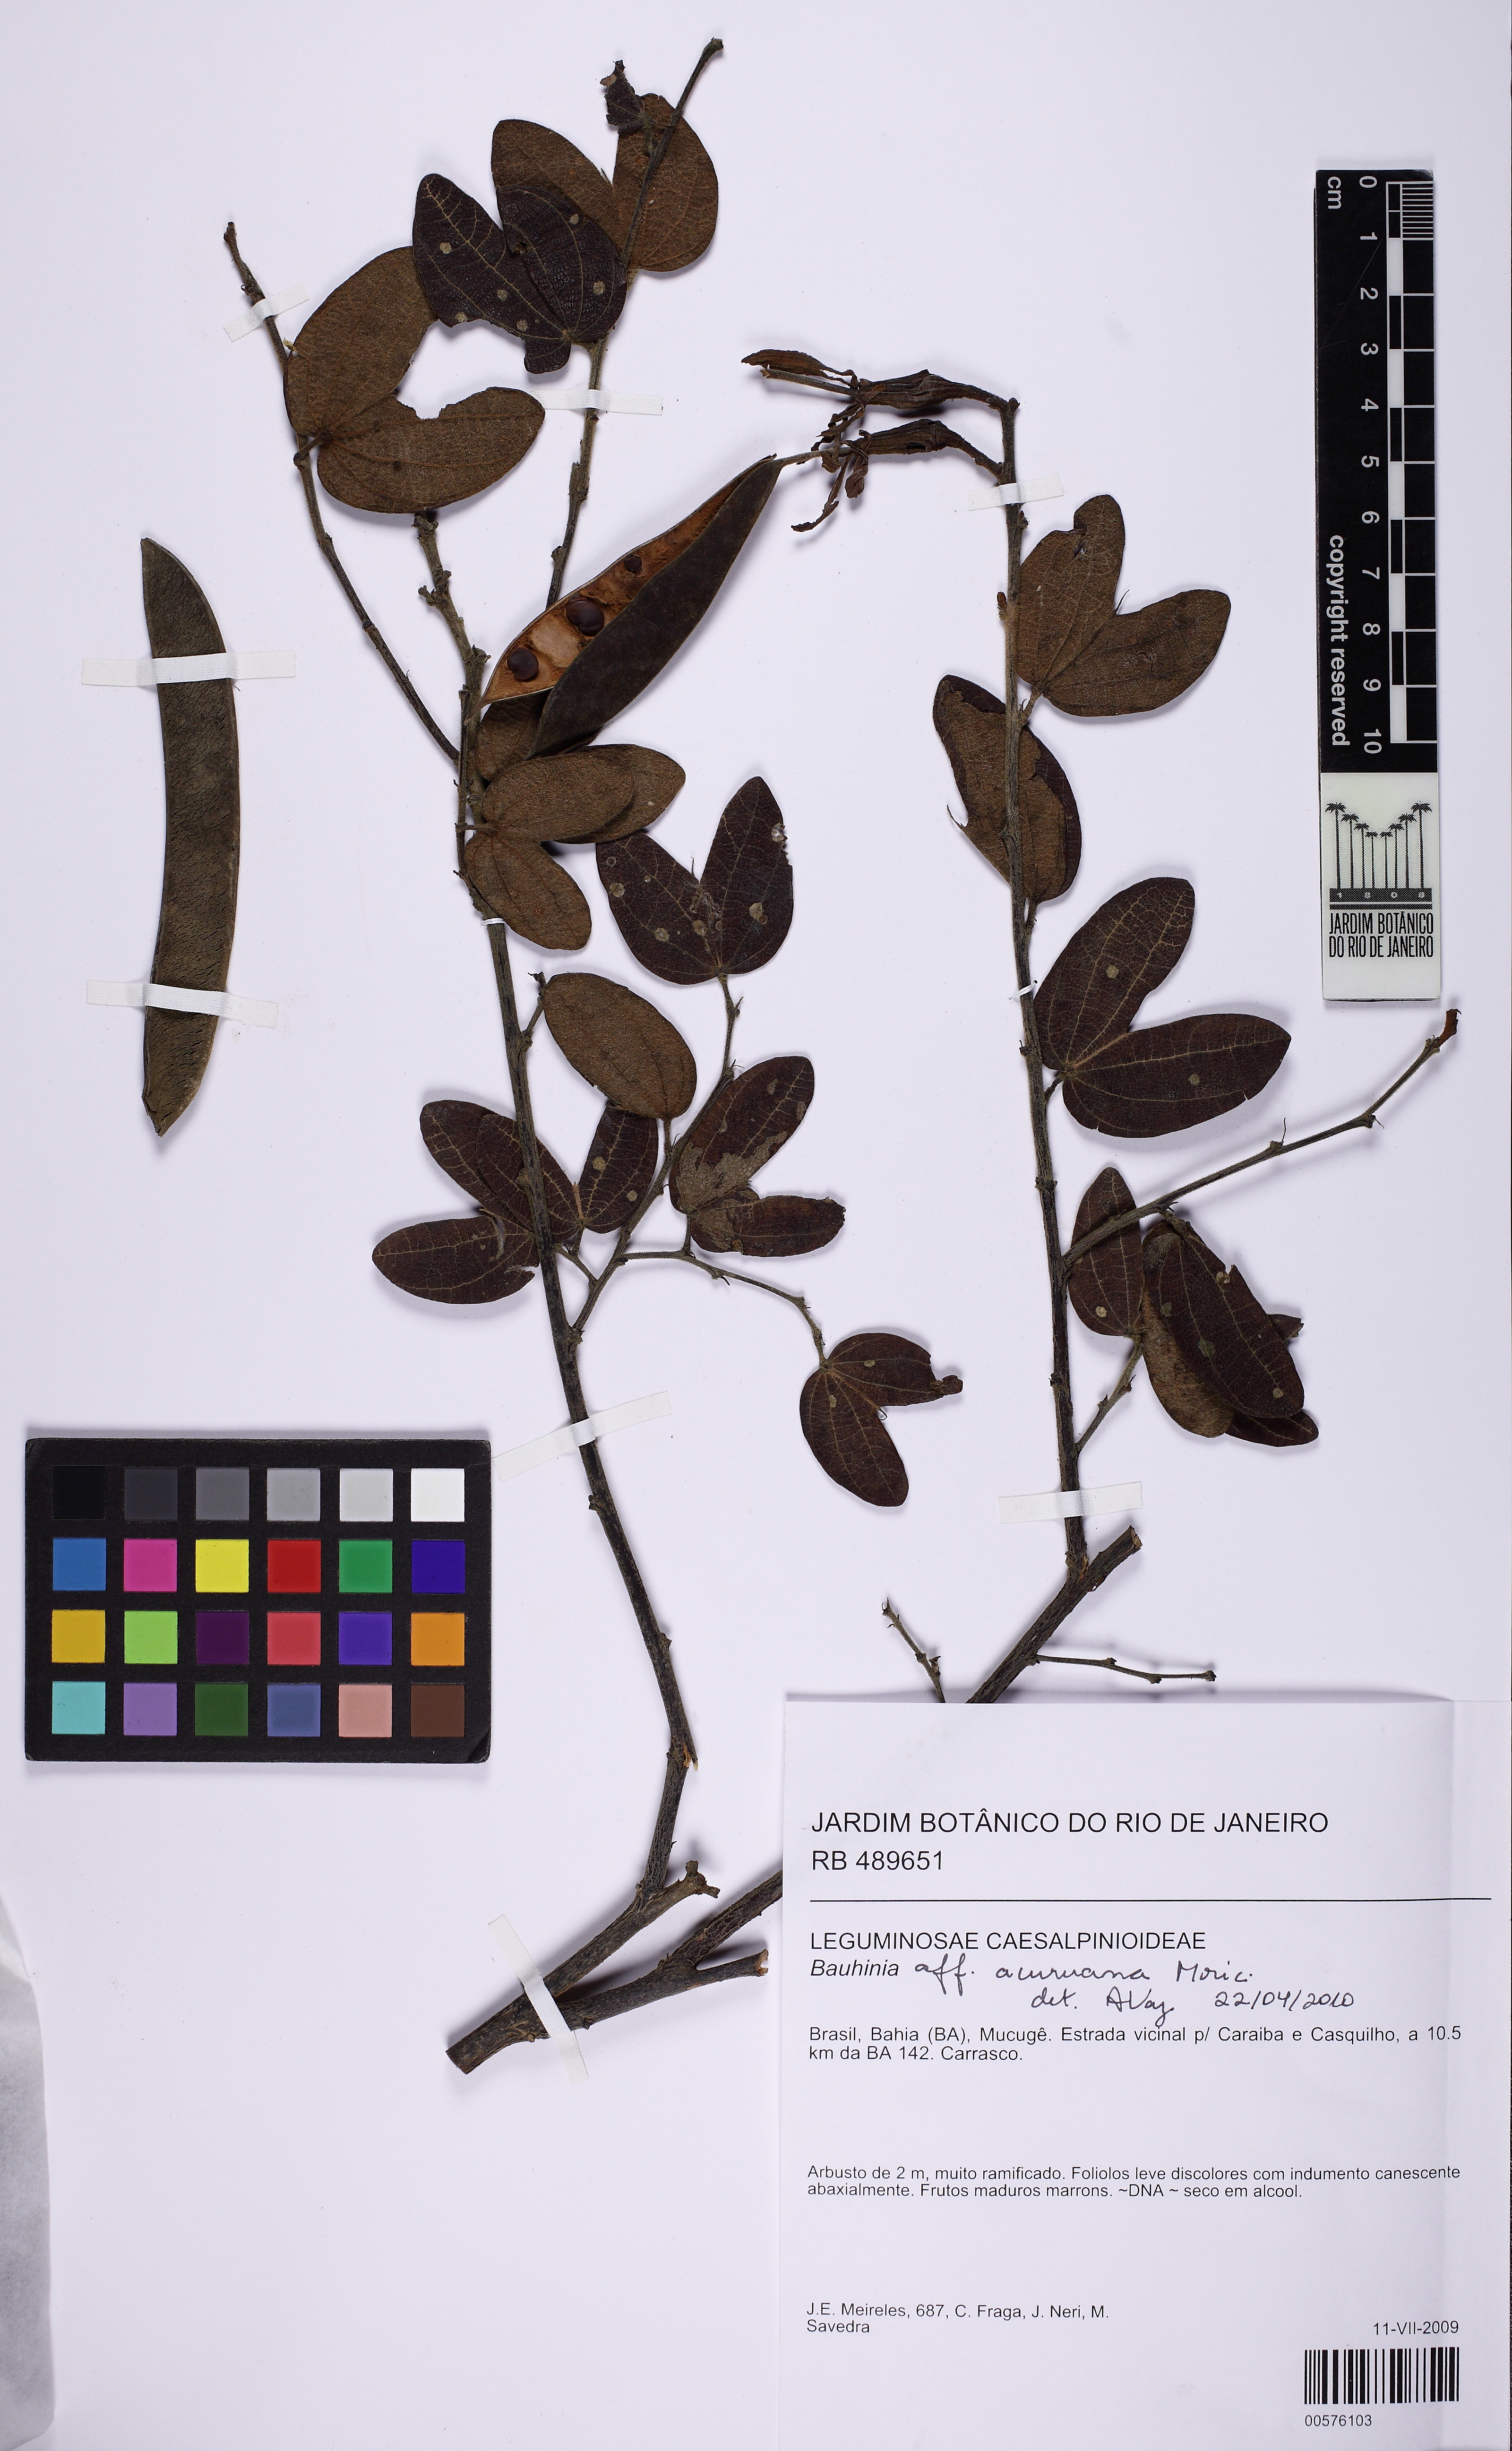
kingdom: Plantae
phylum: Tracheophyta
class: Magnoliopsida
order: Fabales
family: Fabaceae
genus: Bauhinia
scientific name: Bauhinia acuruana
